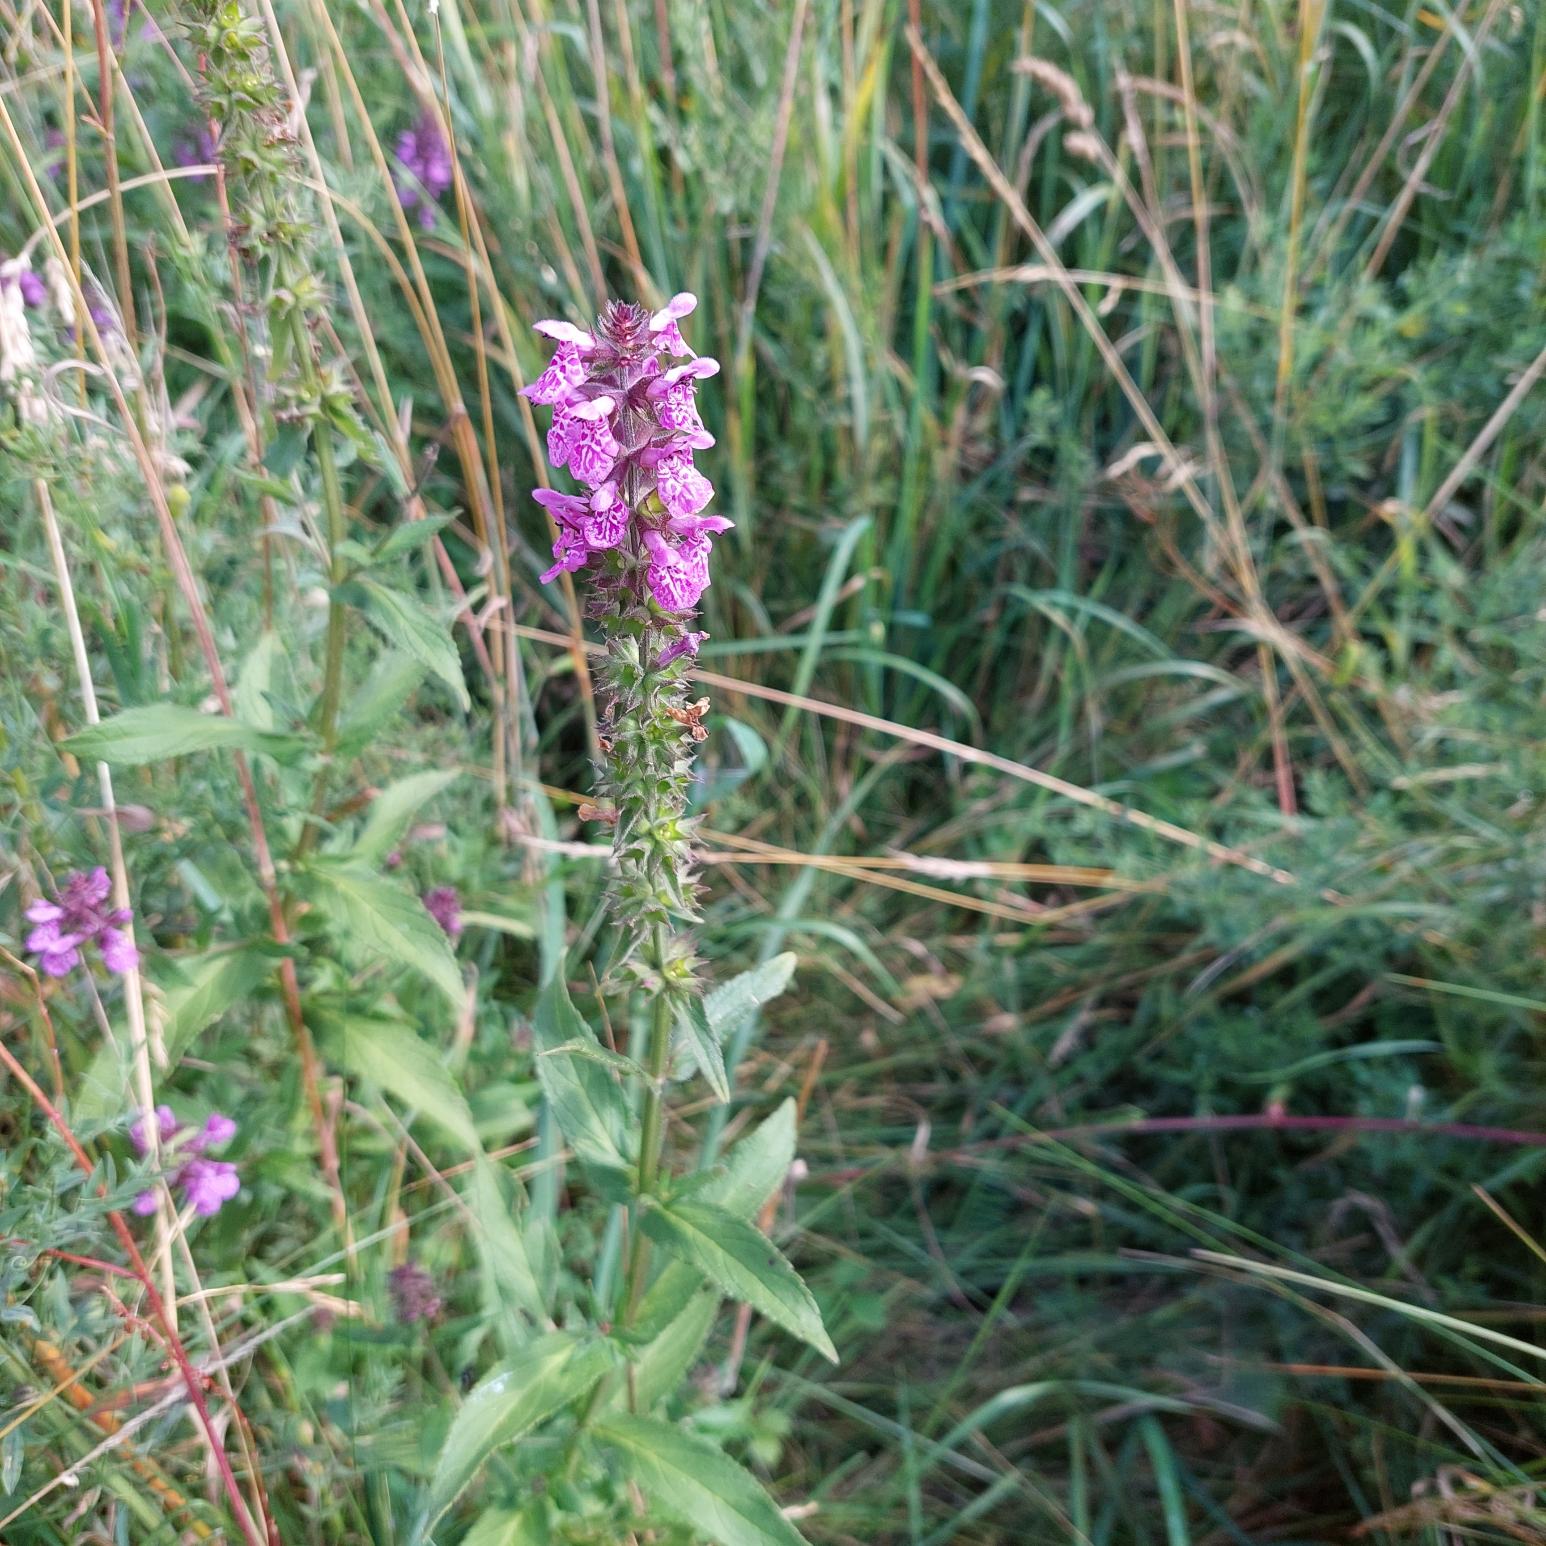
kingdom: Plantae
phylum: Tracheophyta
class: Magnoliopsida
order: Lamiales
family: Lamiaceae
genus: Stachys
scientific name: Stachys palustris
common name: Kær-galtetand
